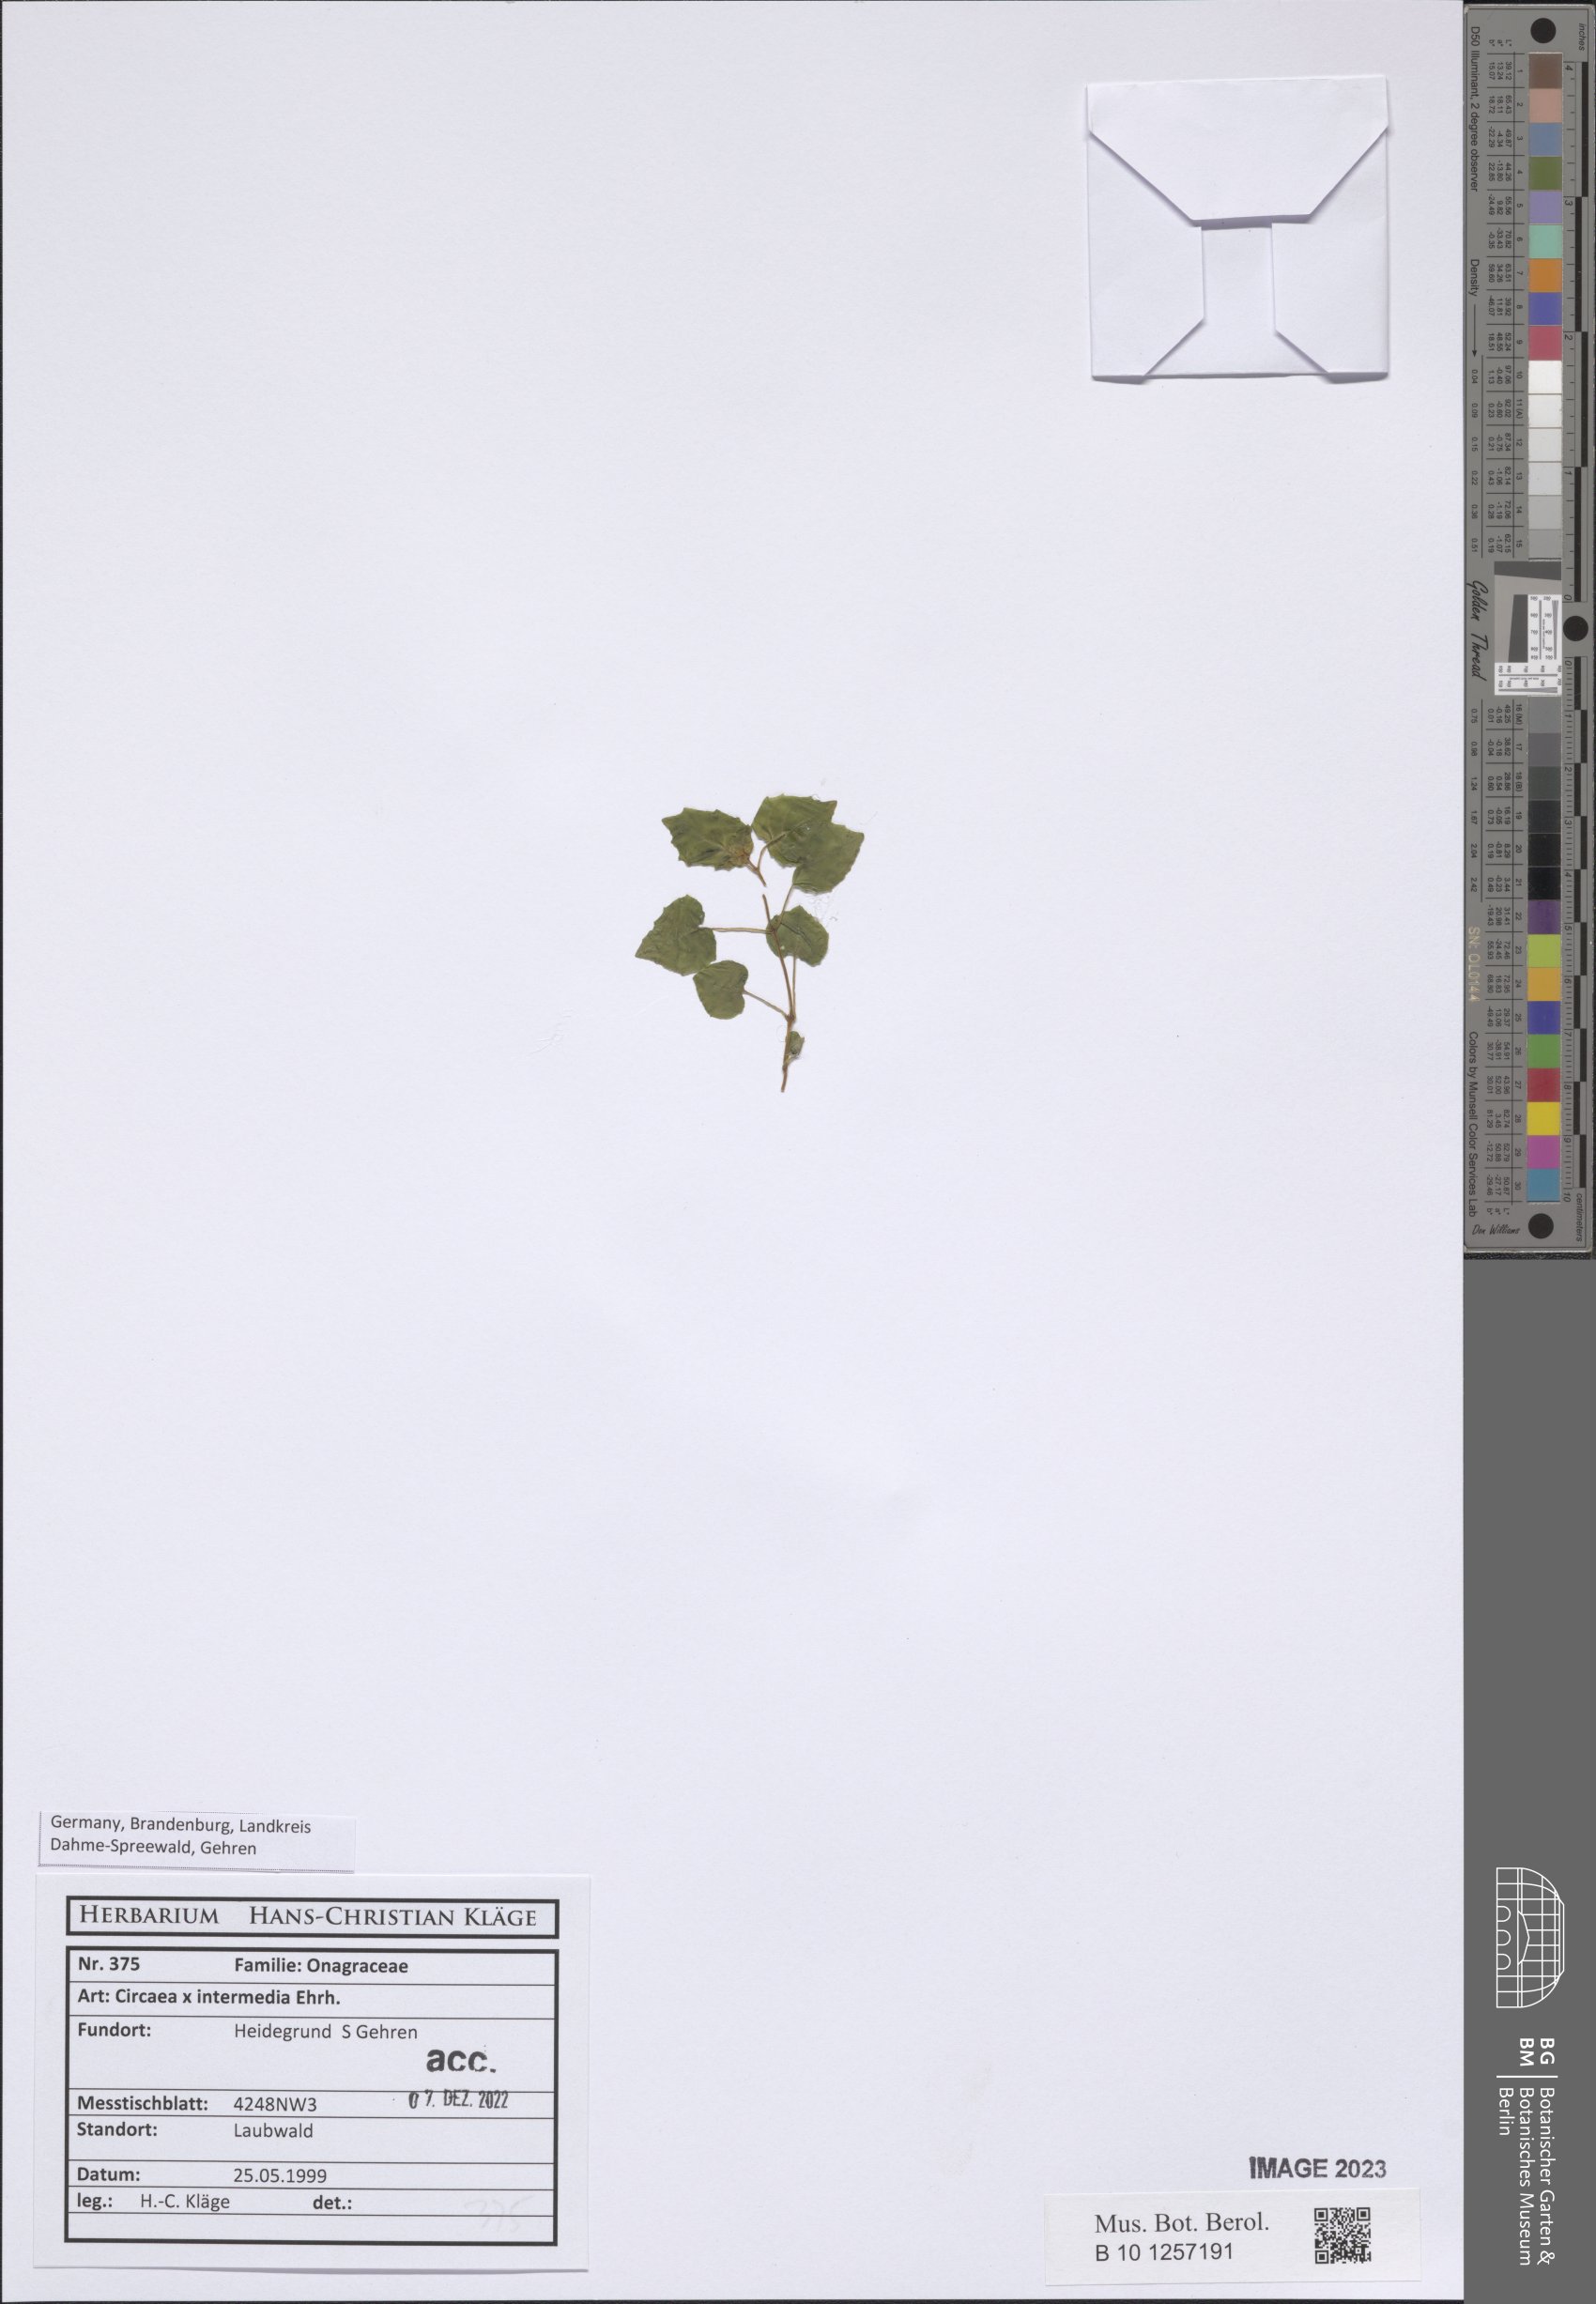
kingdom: Plantae
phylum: Tracheophyta
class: Magnoliopsida
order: Myrtales
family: Onagraceae
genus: Circaea
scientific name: Circaea
